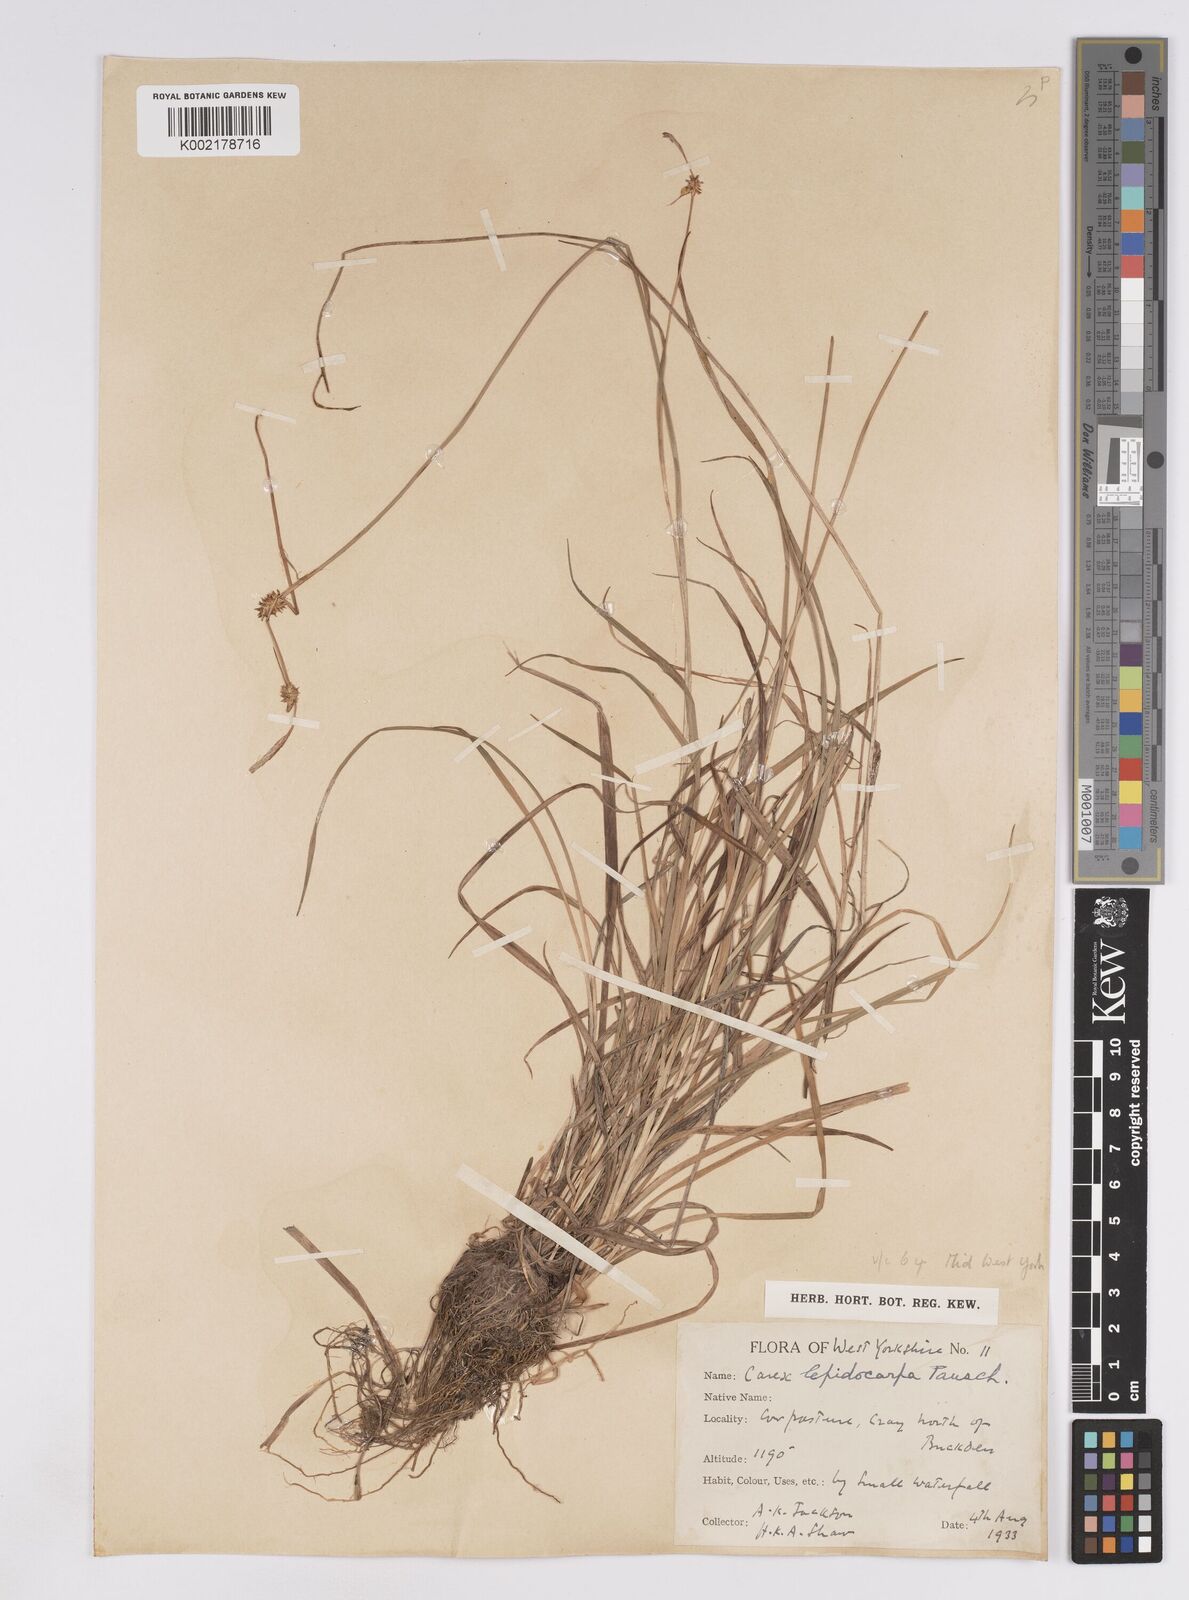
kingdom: Plantae
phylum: Tracheophyta
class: Liliopsida
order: Poales
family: Cyperaceae
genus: Carex
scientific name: Carex lepidocarpa
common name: Long-stalked yellow-sedge
